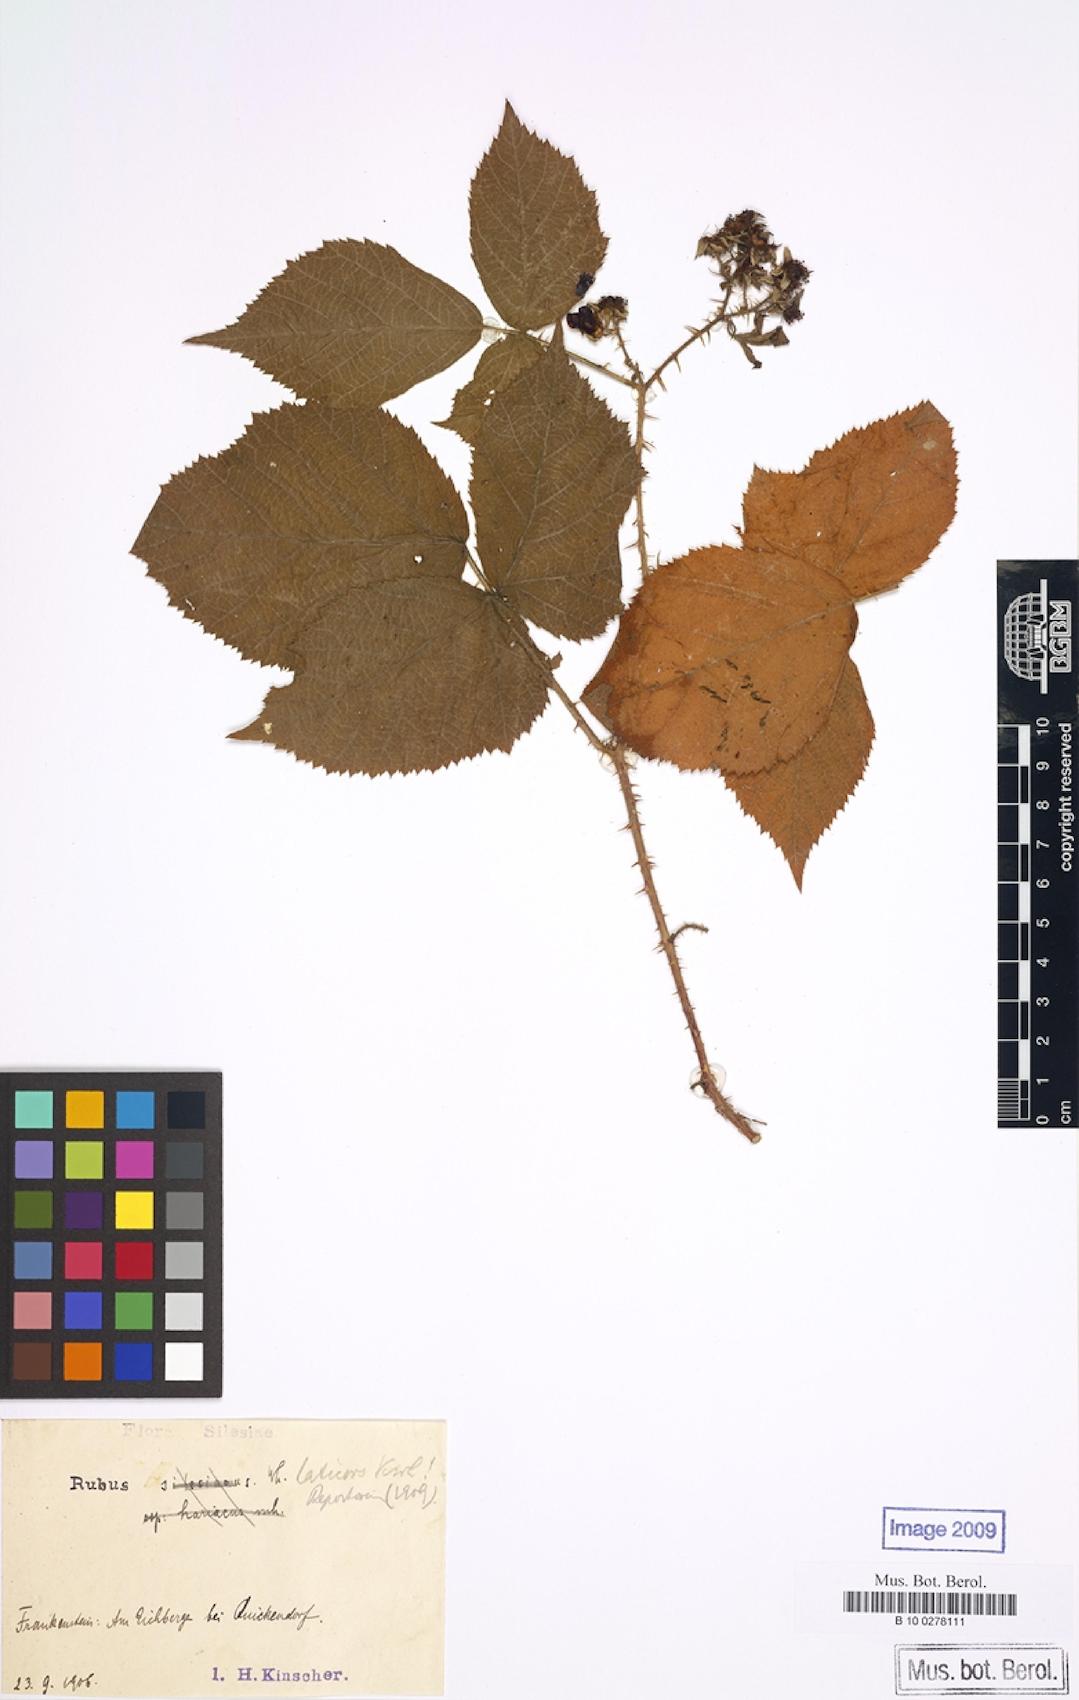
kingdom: Plantae
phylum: Tracheophyta
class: Magnoliopsida
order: Rosales
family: Rosaceae
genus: Rubus
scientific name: Rubus laticors
